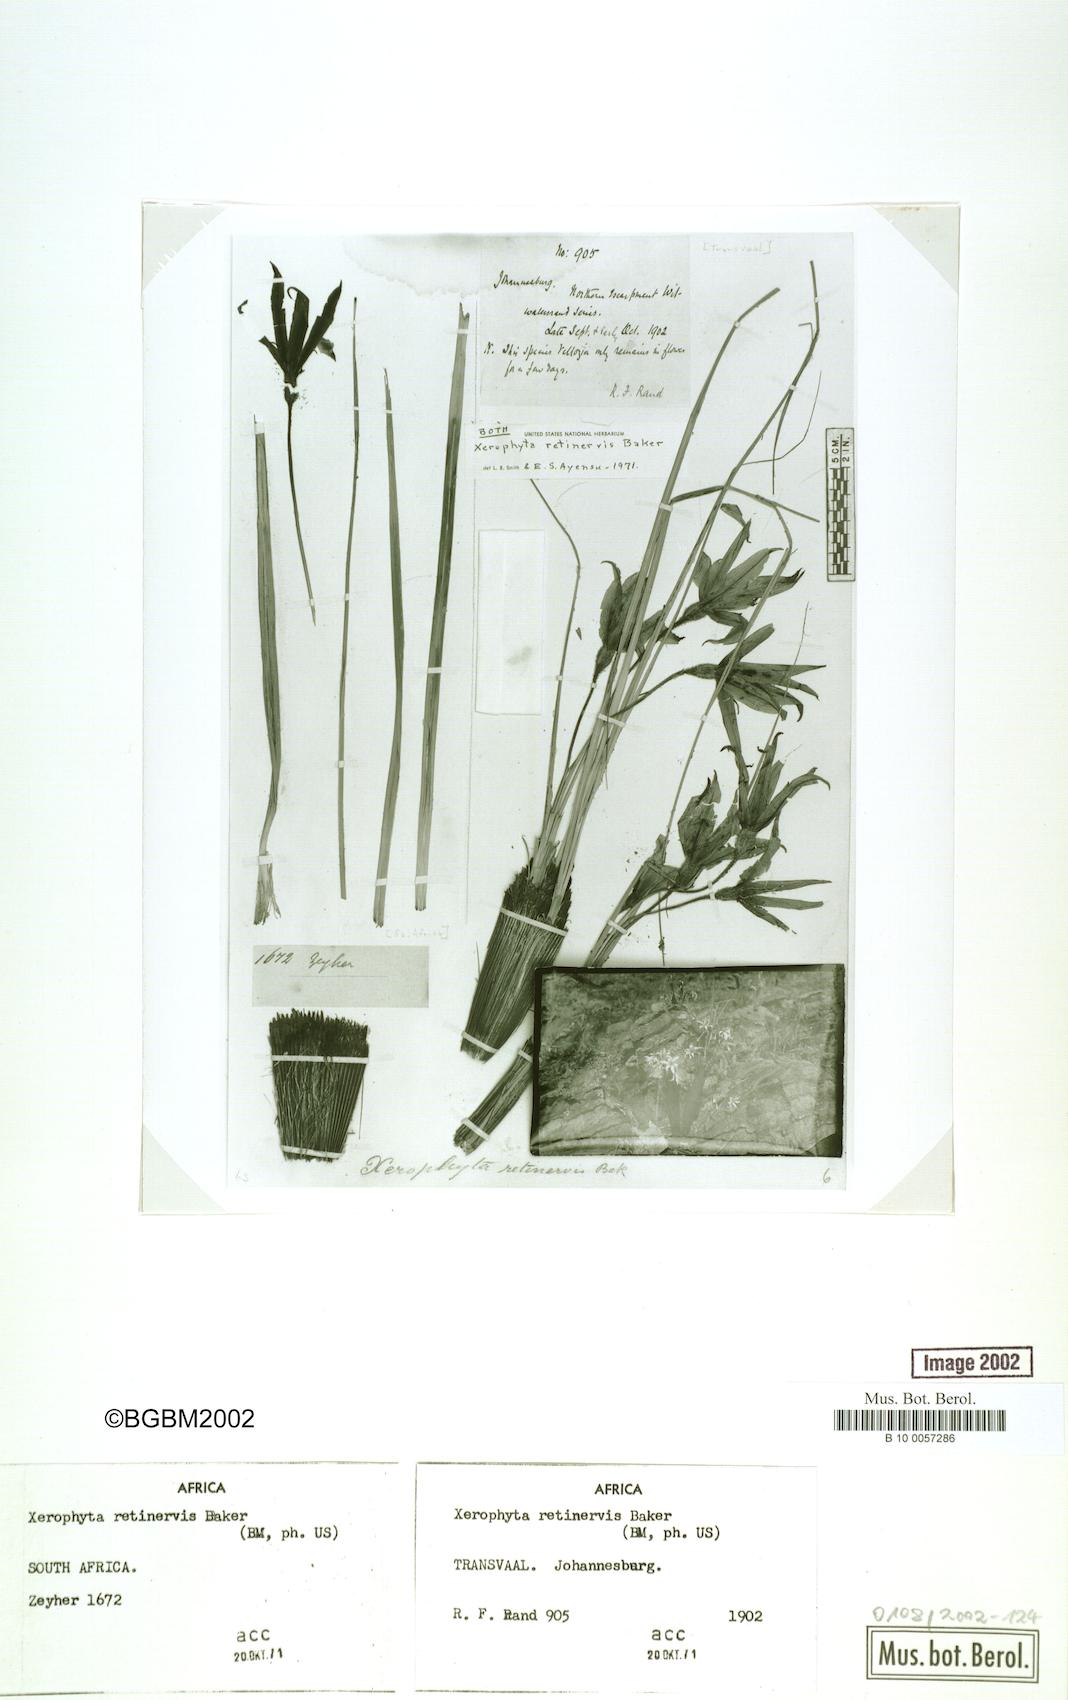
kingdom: Plantae
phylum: Tracheophyta
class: Liliopsida
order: Pandanales
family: Velloziaceae
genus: Xerophyta
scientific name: Xerophyta retinervis
